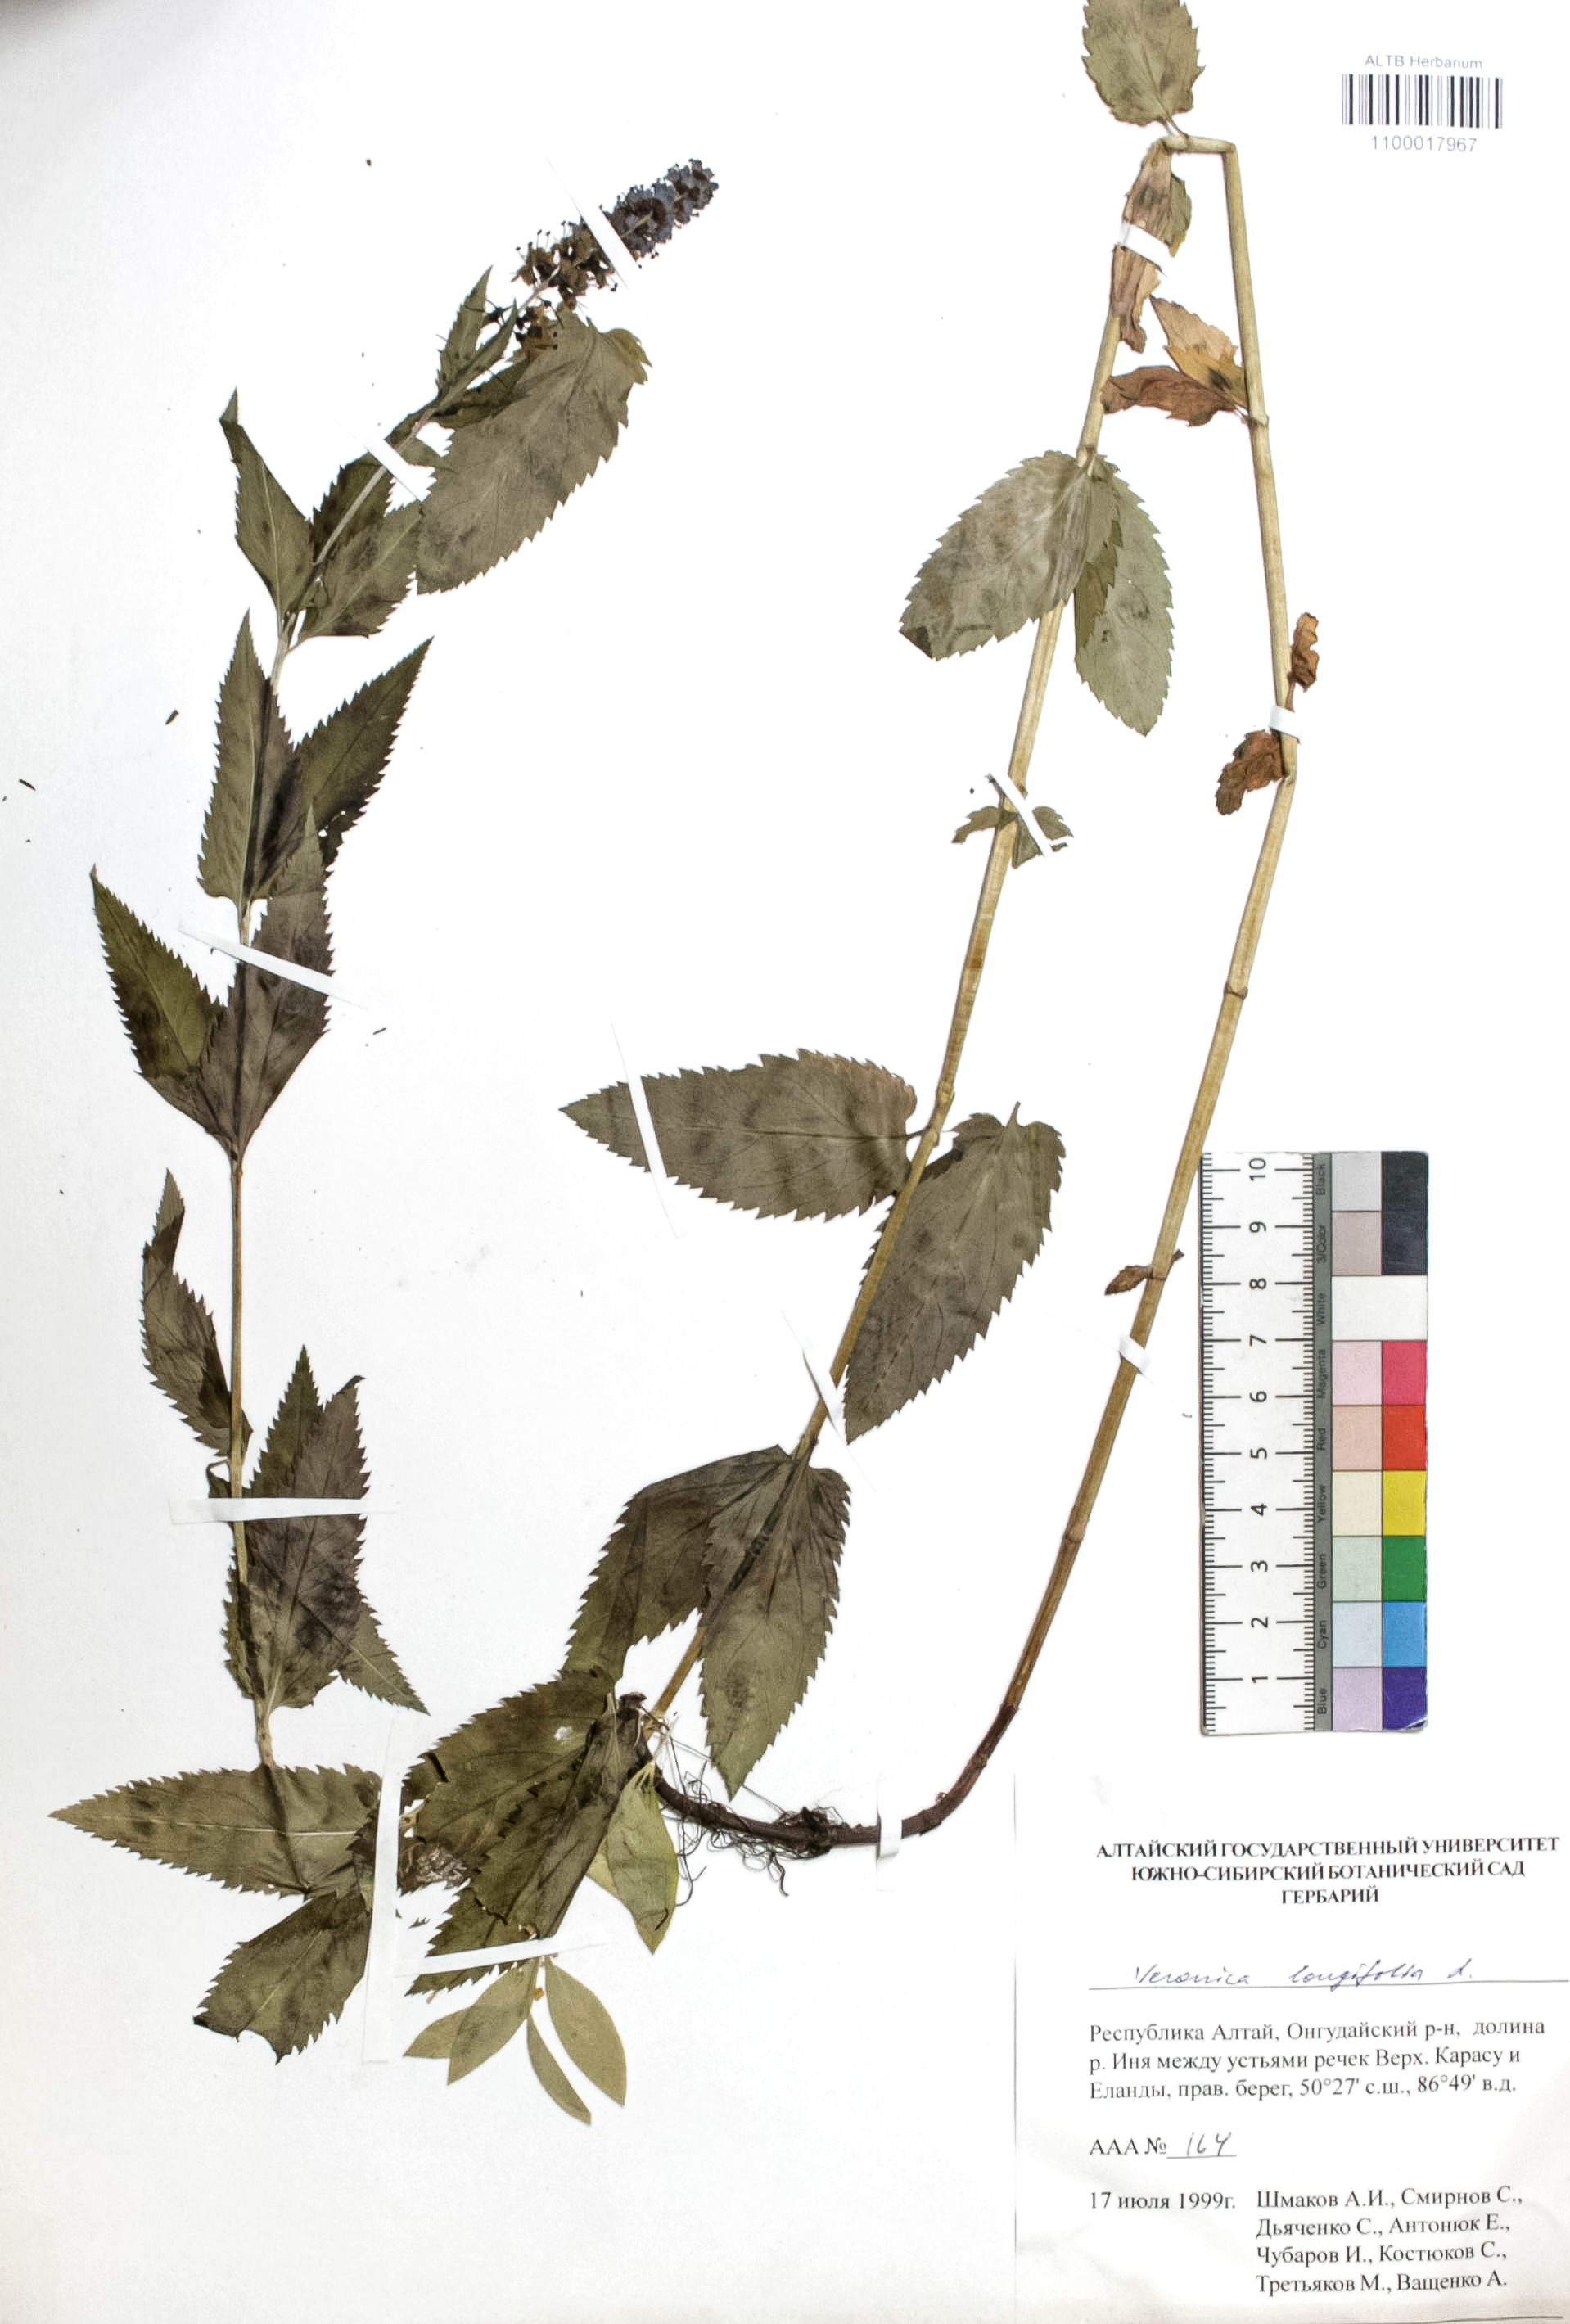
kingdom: Plantae
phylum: Tracheophyta
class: Magnoliopsida
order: Lamiales
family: Plantaginaceae
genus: Veronica
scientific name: Veronica longifolia
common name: Garden speedwell
